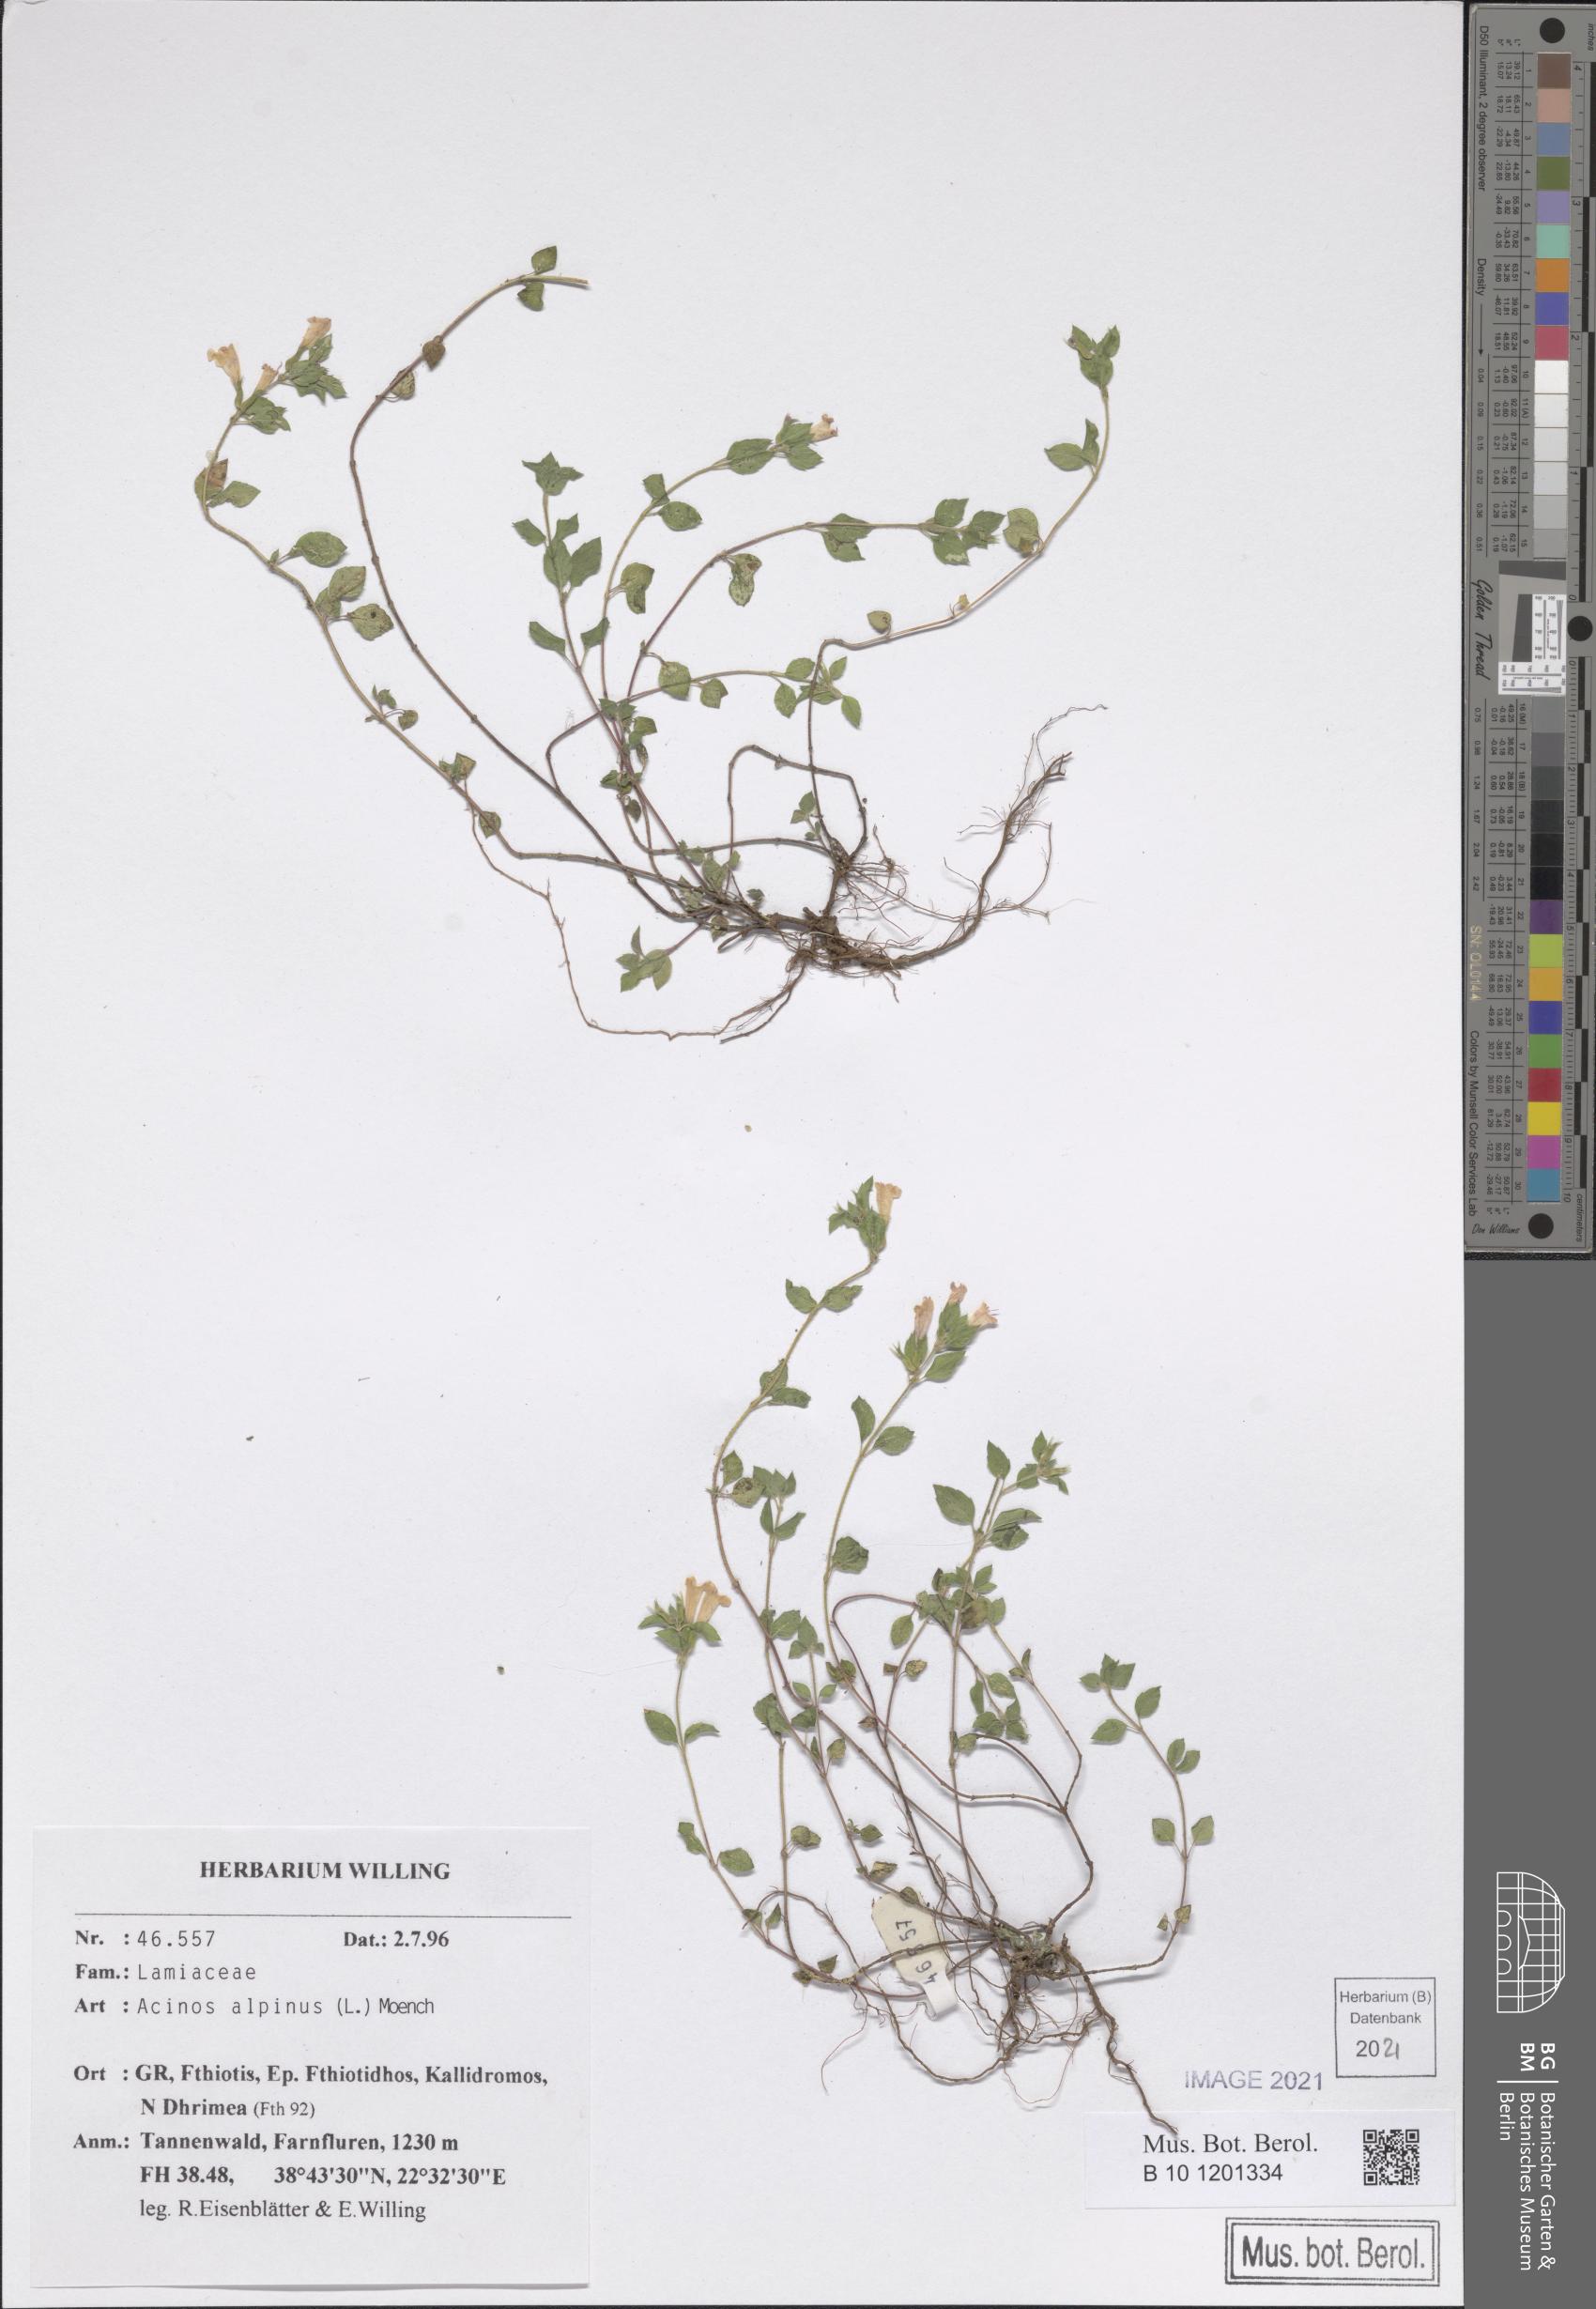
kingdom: Plantae
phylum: Tracheophyta
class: Magnoliopsida
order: Lamiales
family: Lamiaceae
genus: Clinopodium
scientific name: Clinopodium alpinum
